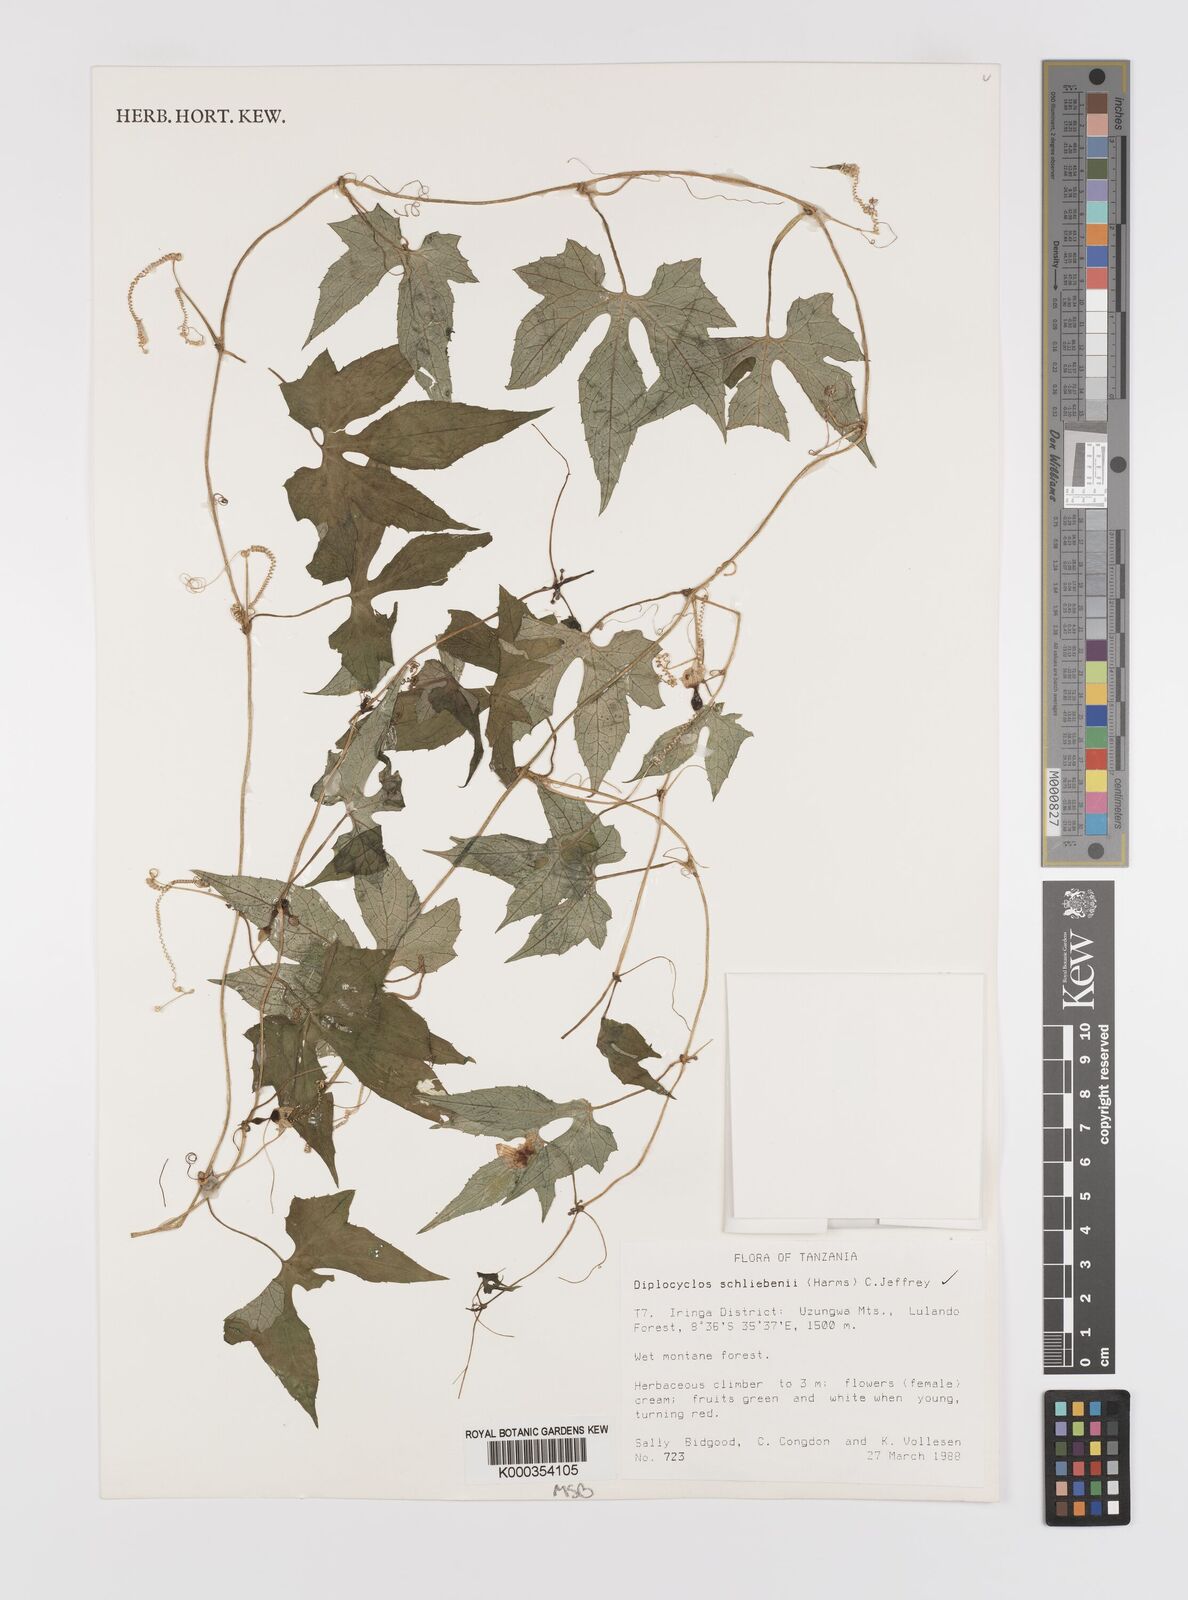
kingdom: Plantae
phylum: Tracheophyta
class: Magnoliopsida
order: Cucurbitales
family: Cucurbitaceae
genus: Diplocyclos
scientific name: Diplocyclos schliebenii
